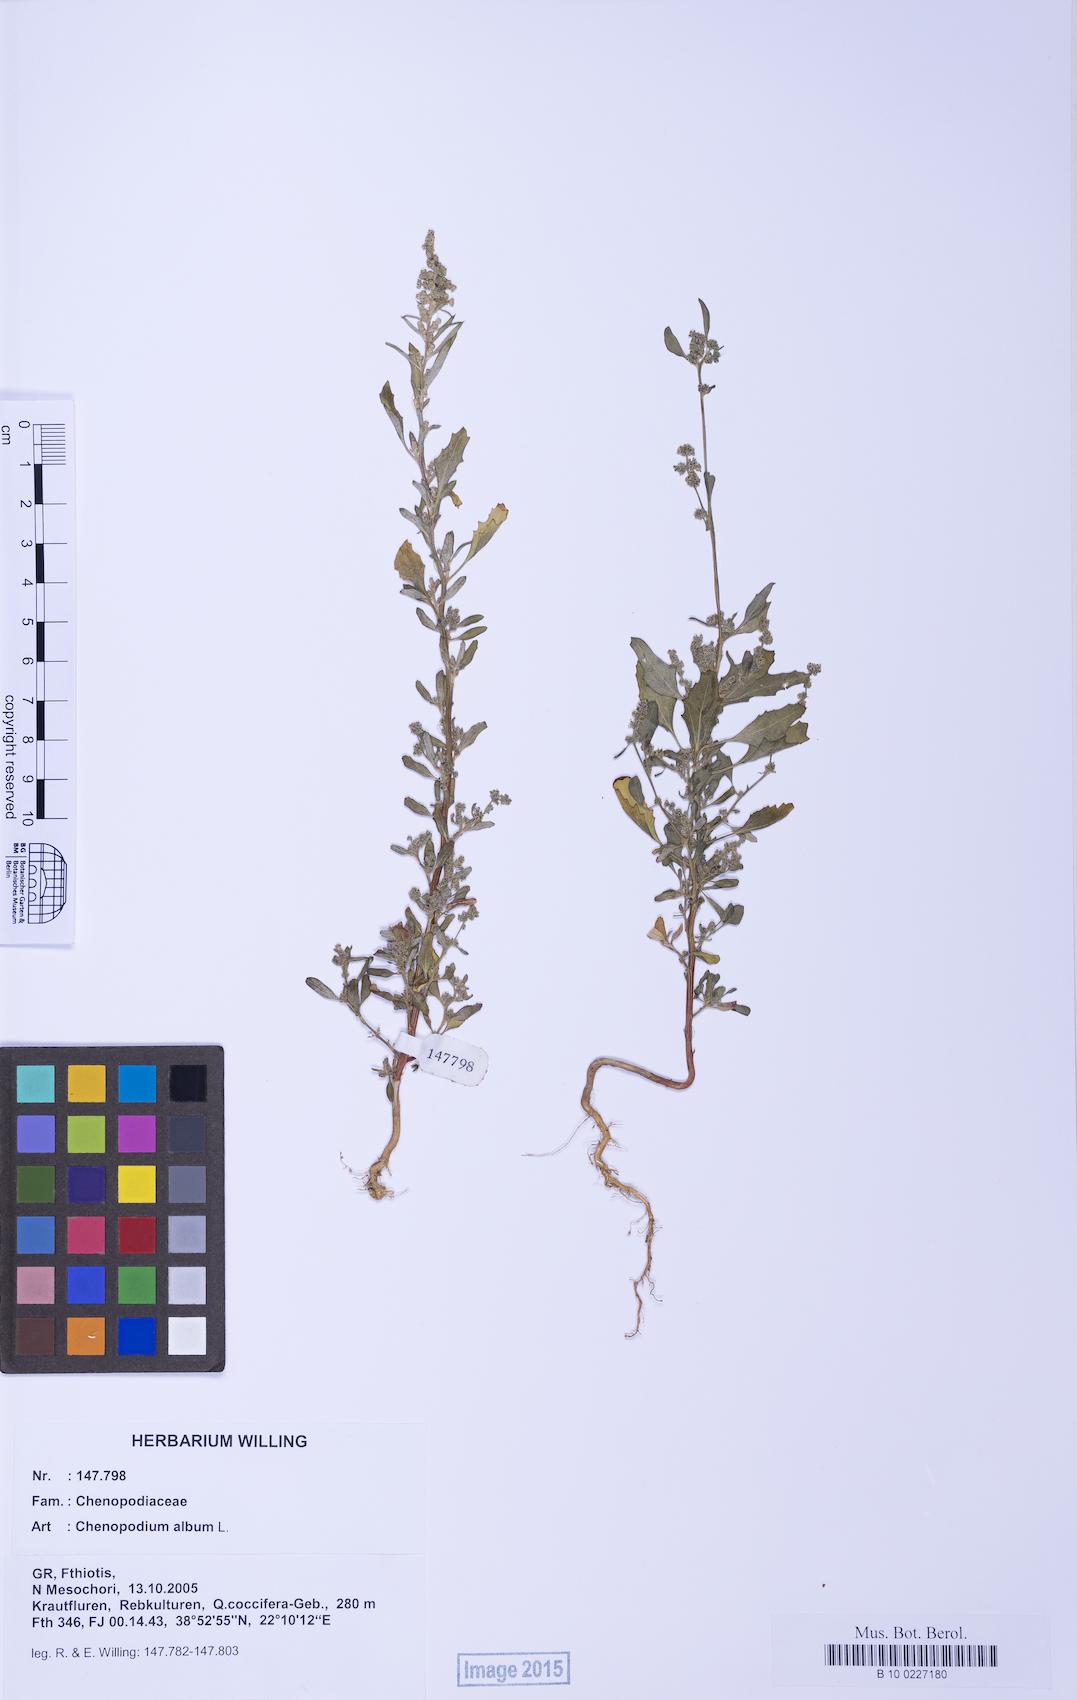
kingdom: Plantae
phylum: Tracheophyta
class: Magnoliopsida
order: Caryophyllales
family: Amaranthaceae
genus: Chenopodium
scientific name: Chenopodium album
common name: Fat-hen
